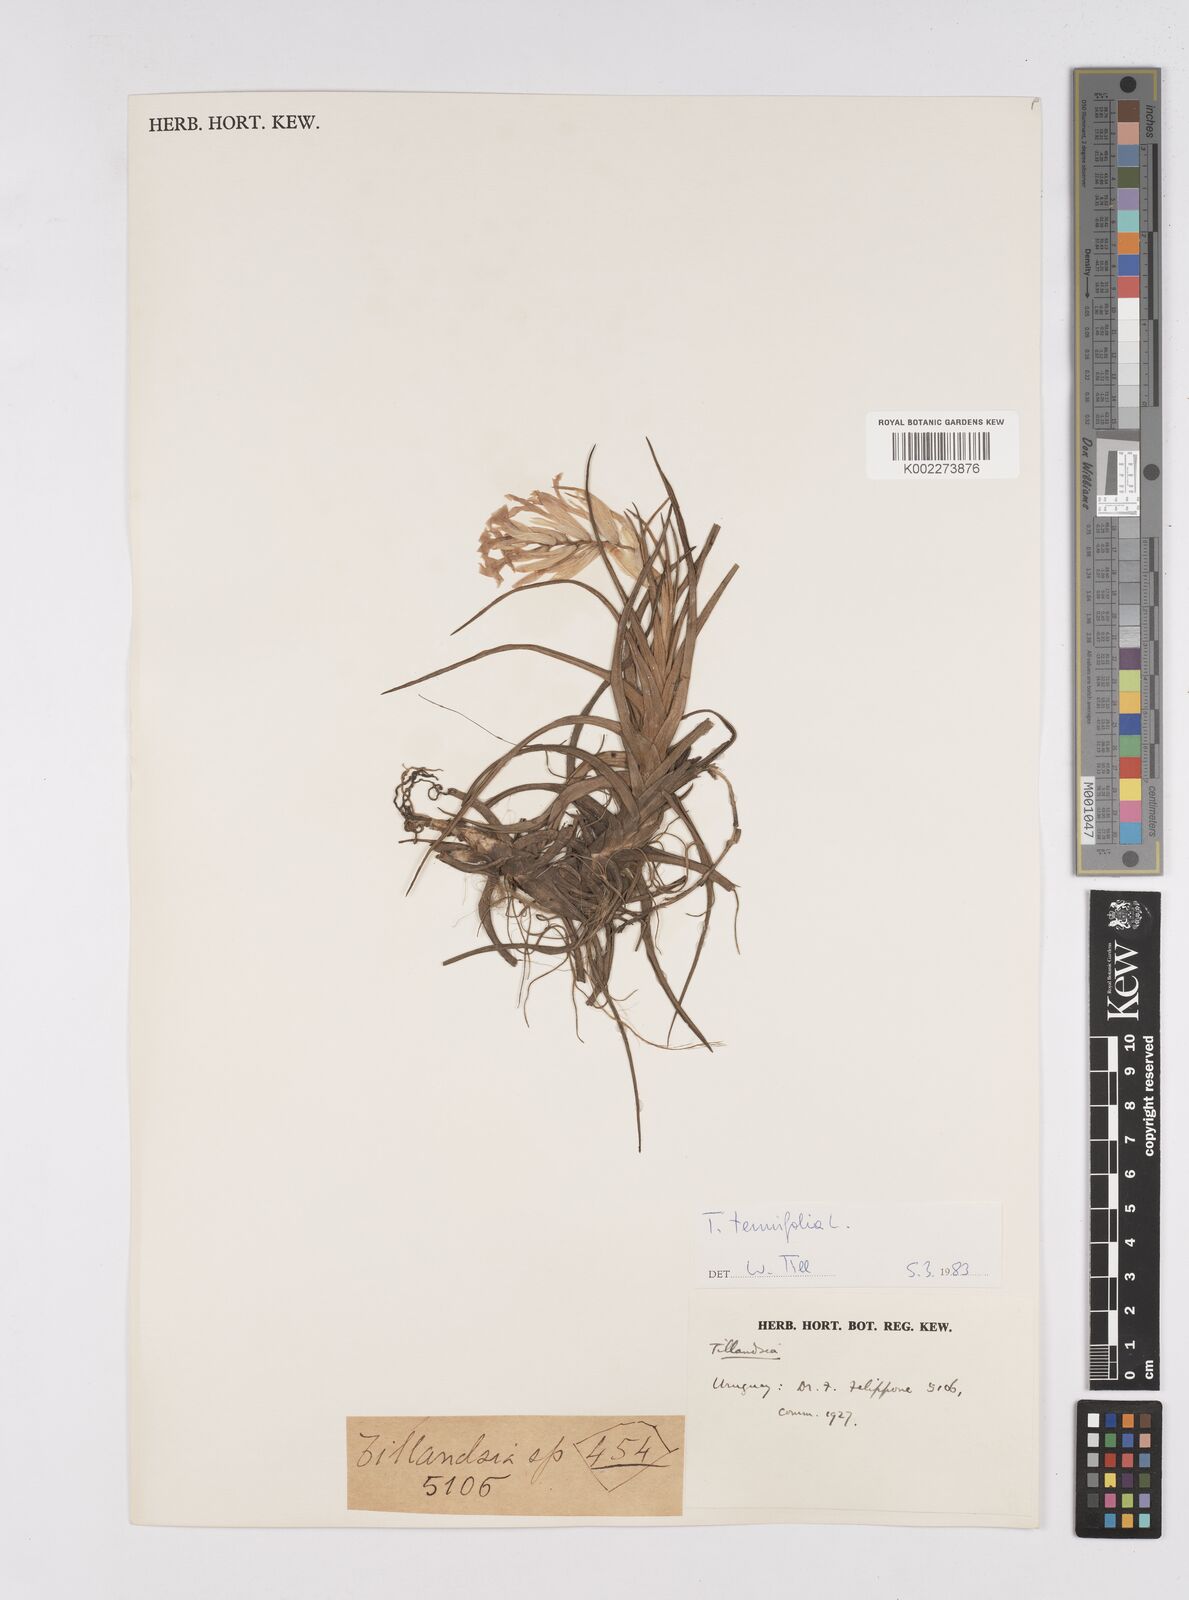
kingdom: Plantae
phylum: Tracheophyta
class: Liliopsida
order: Poales
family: Bromeliaceae
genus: Tillandsia
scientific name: Tillandsia tenuifolia
